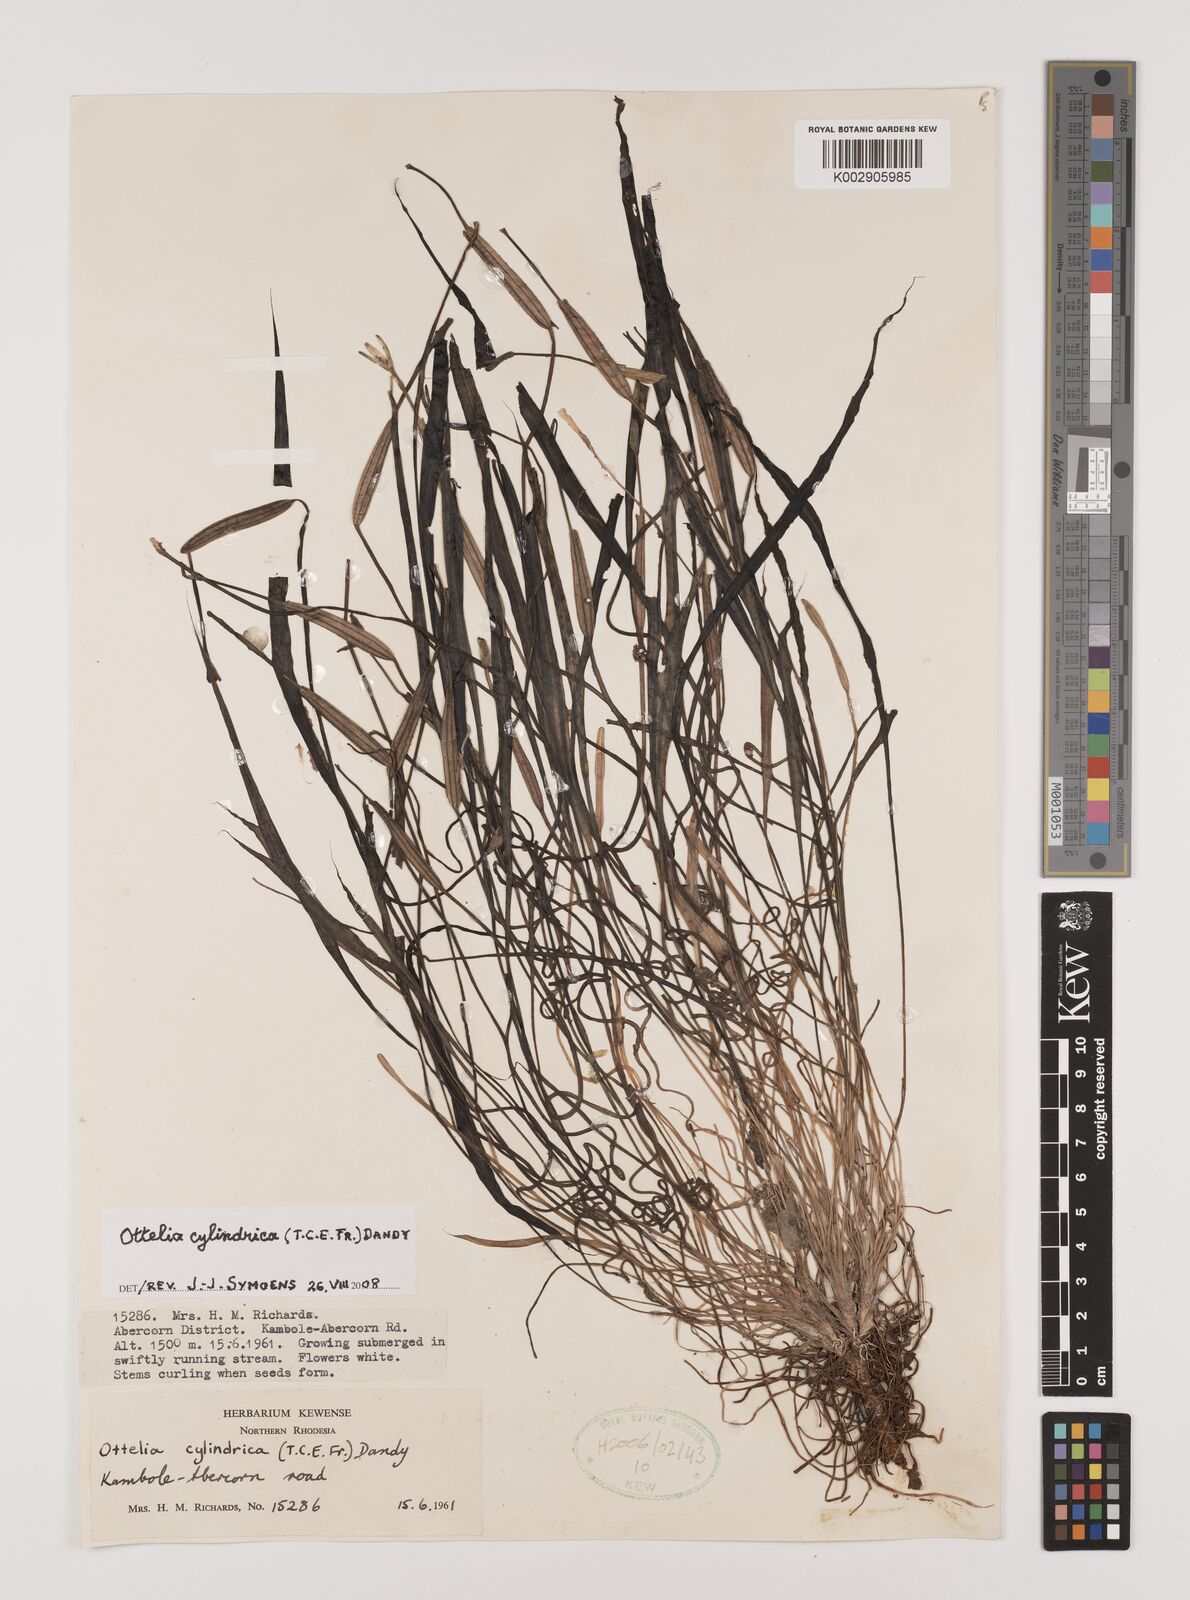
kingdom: Plantae
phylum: Tracheophyta
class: Liliopsida
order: Alismatales
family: Hydrocharitaceae
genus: Ottelia
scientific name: Ottelia cylindrica
